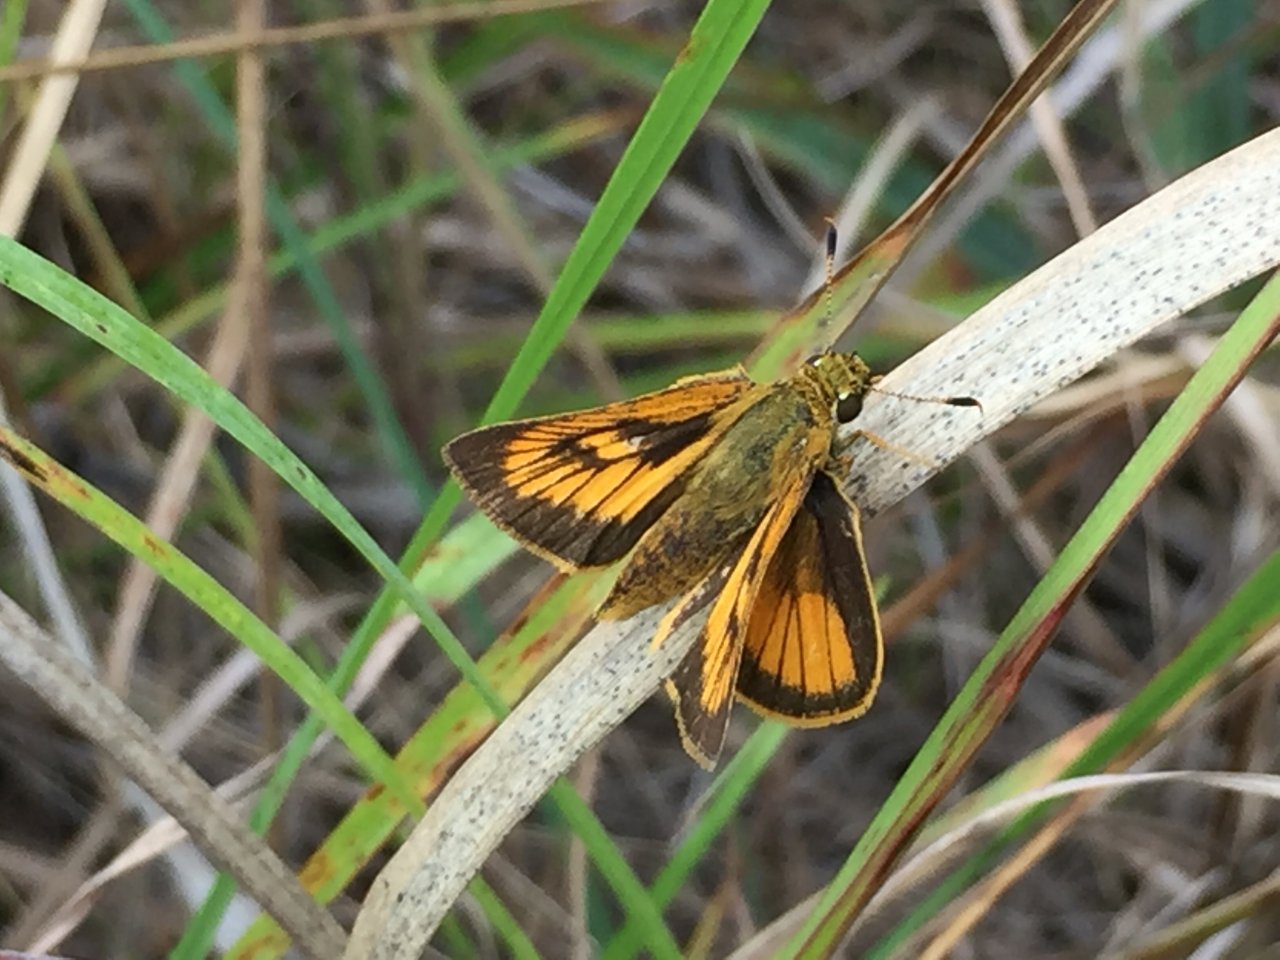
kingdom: Animalia
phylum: Arthropoda
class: Insecta
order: Lepidoptera
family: Hesperiidae
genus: Atrytone
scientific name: Atrytone delaware
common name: Delaware Skipper
